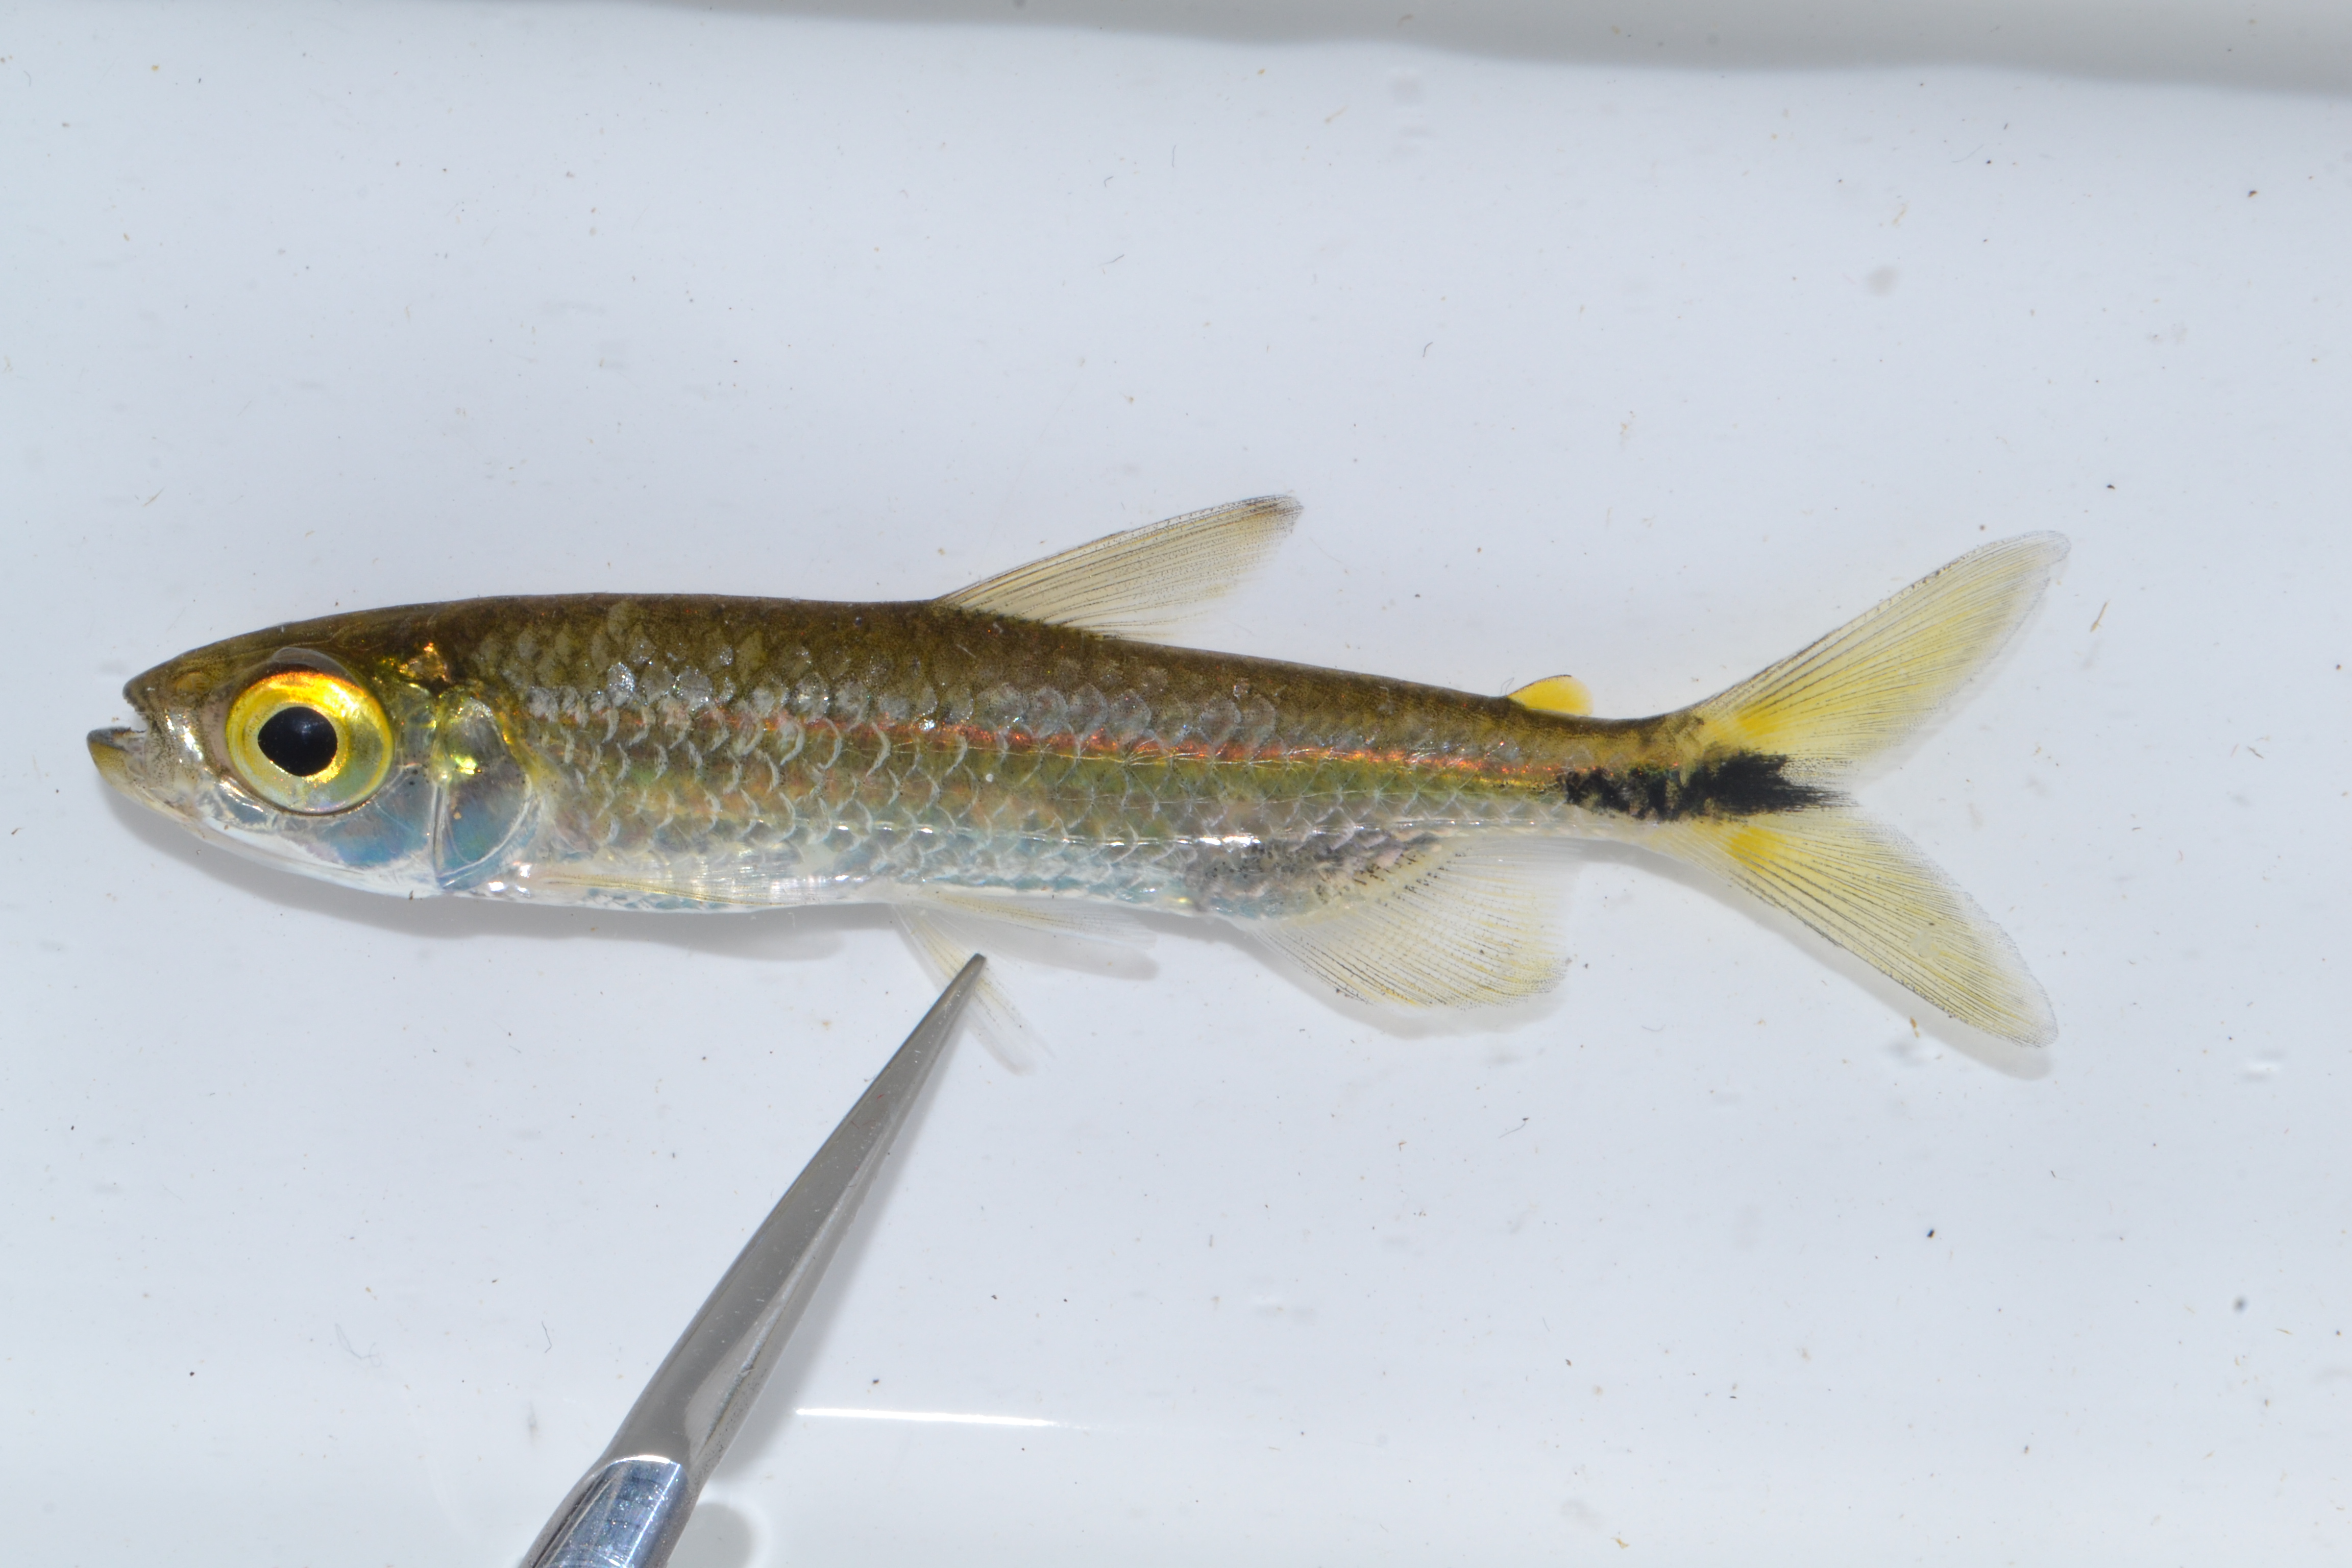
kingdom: Animalia
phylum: Chordata
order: Characiformes
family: Alestidae
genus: Brycinus
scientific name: Brycinus lateralis
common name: Striped robber
